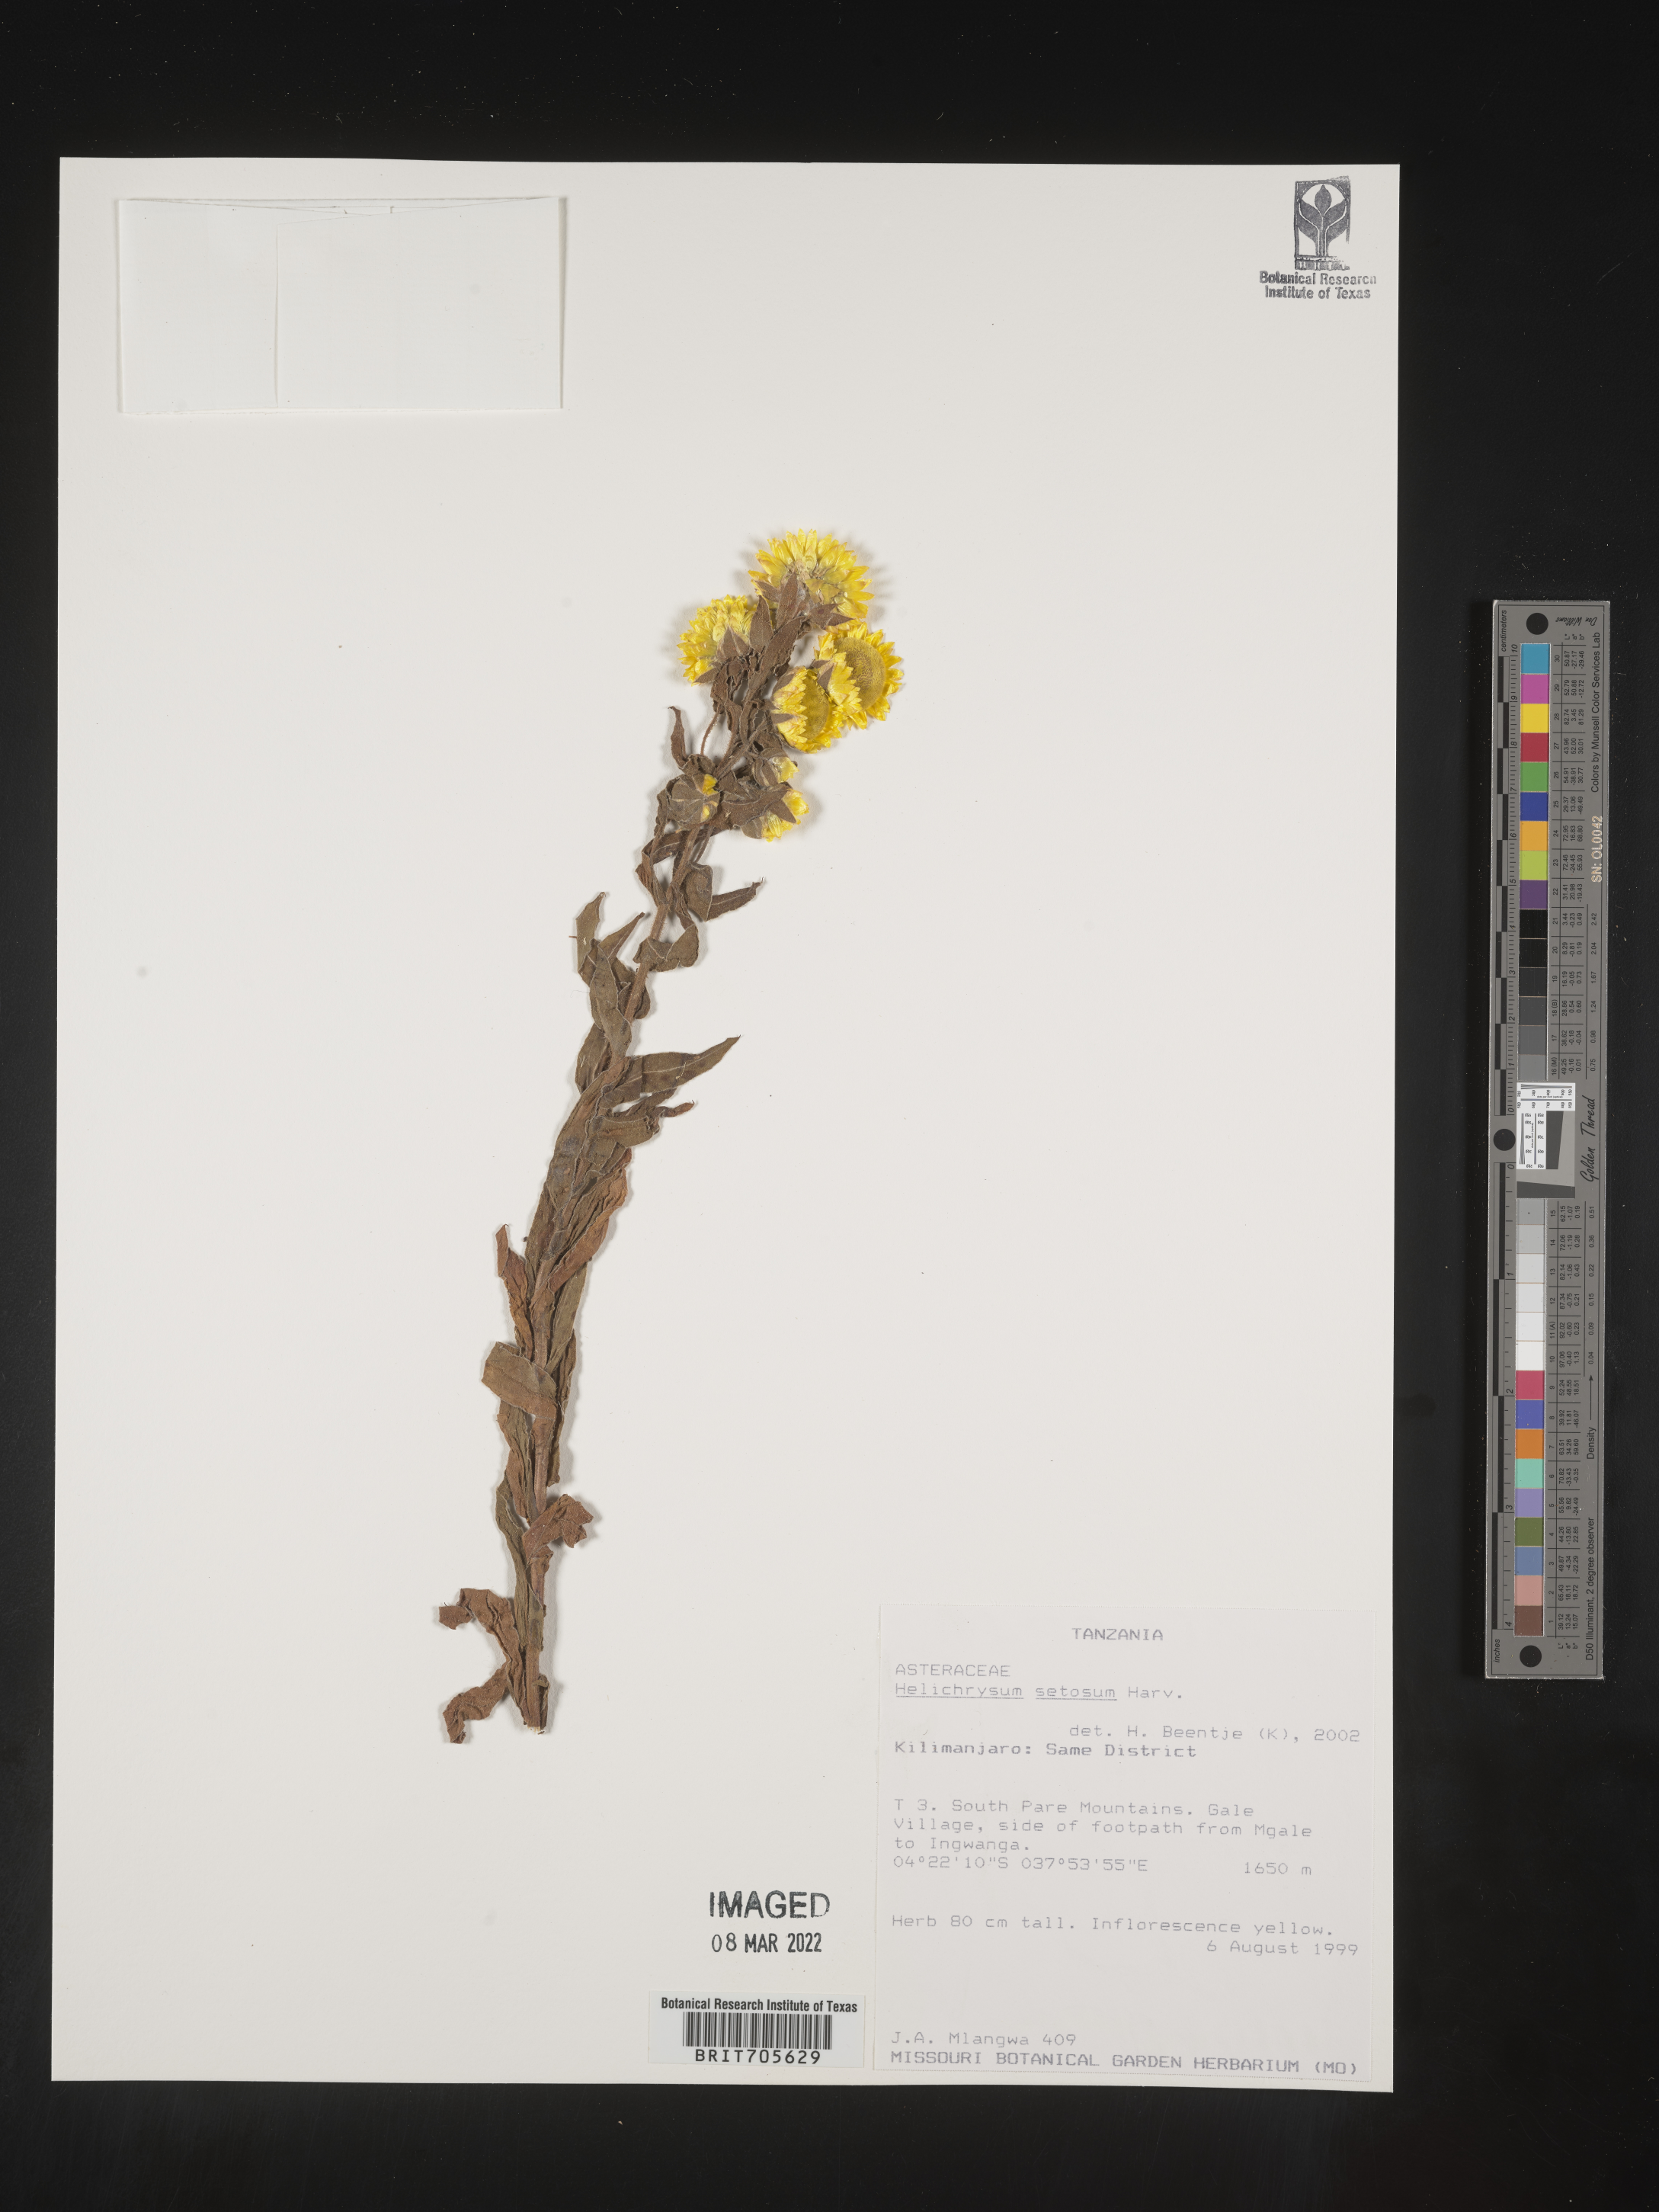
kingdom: Plantae
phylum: Tracheophyta
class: Magnoliopsida
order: Asterales
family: Asteraceae
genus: Helichrysum
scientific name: Helichrysum setosum
